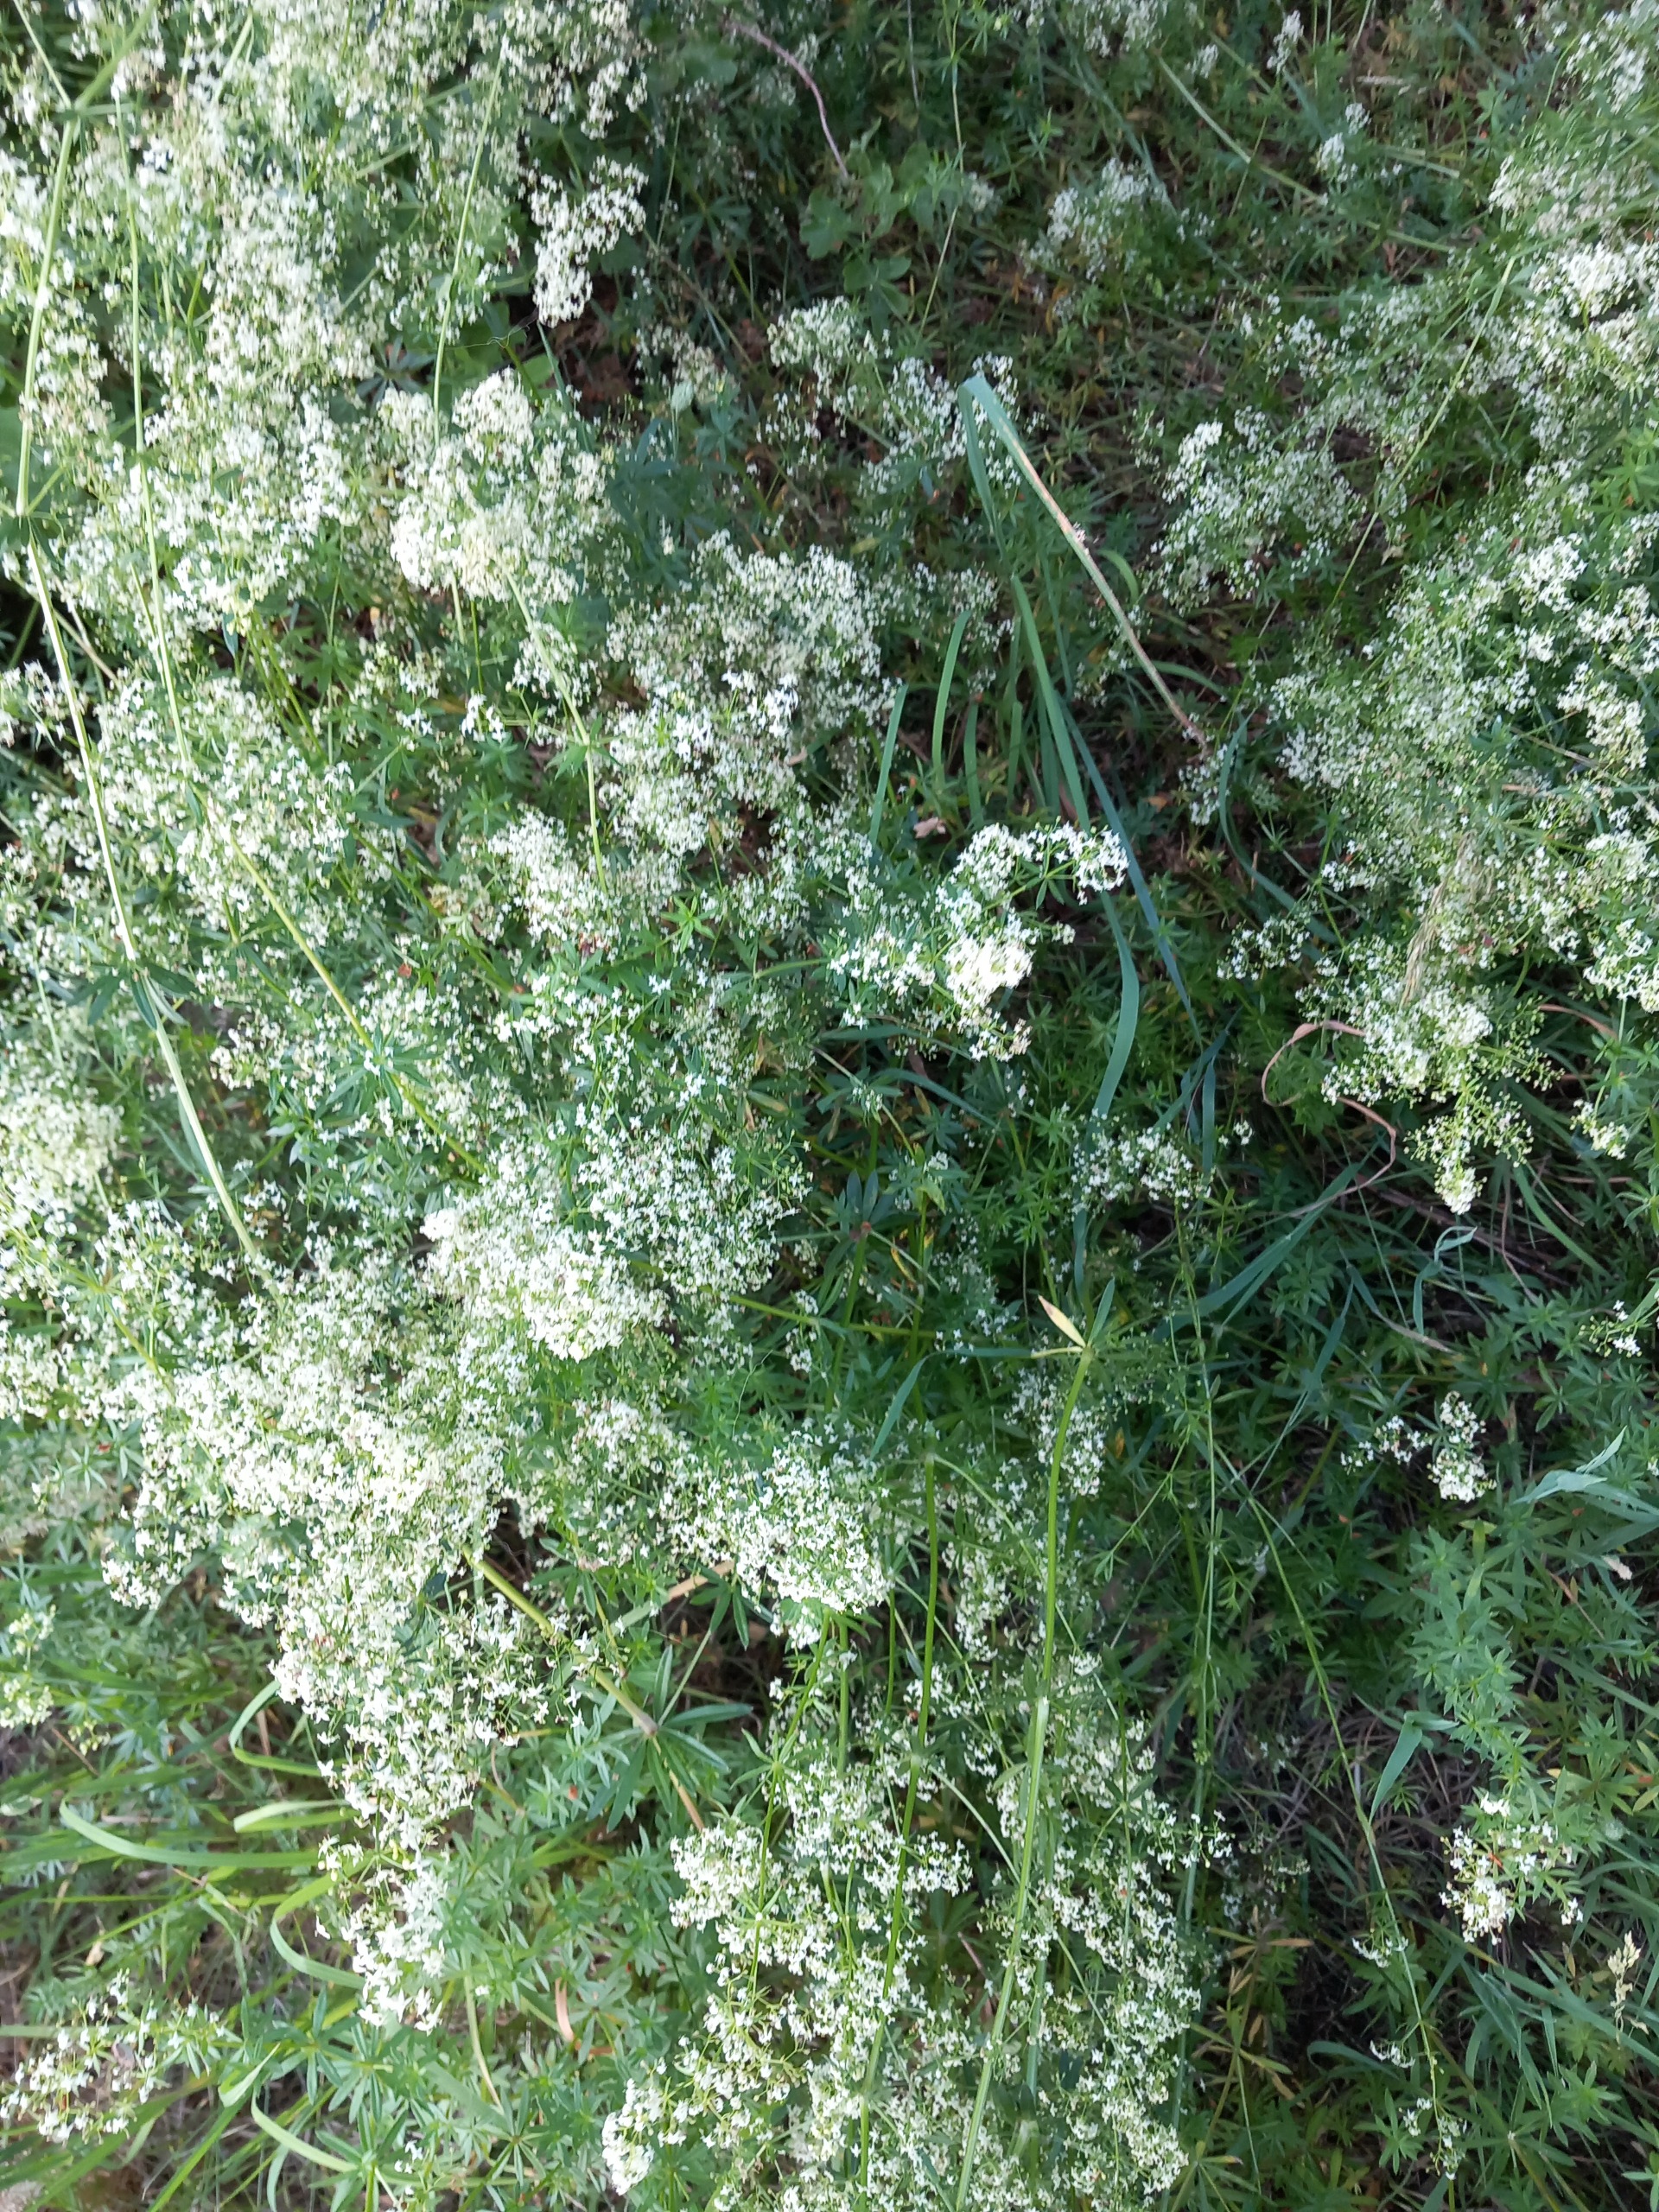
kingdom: Plantae
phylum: Tracheophyta
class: Magnoliopsida
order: Gentianales
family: Rubiaceae
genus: Galium
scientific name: Galium mollugo
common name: Hvid snerre
